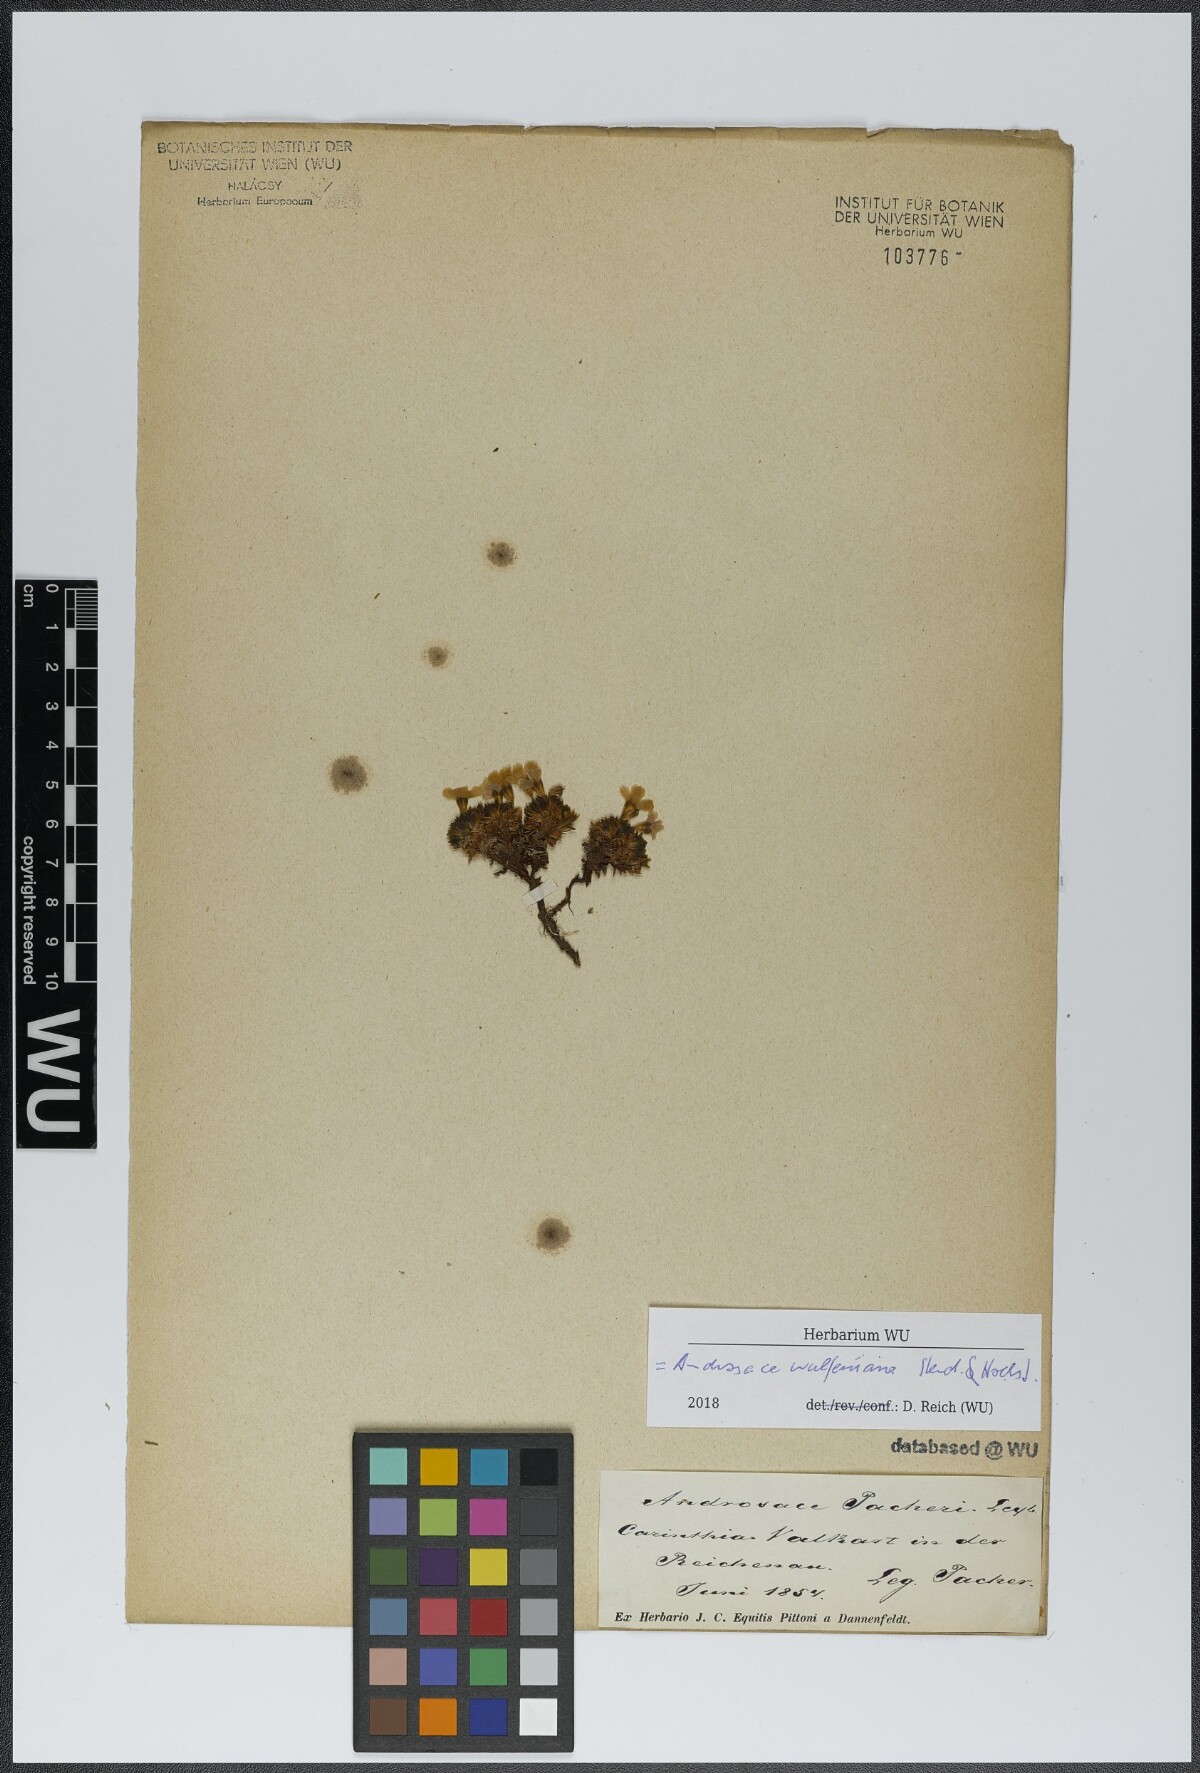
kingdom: Plantae
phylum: Tracheophyta
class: Magnoliopsida
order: Ericales
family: Primulaceae
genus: Androsace
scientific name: Androsace wulfeniana
